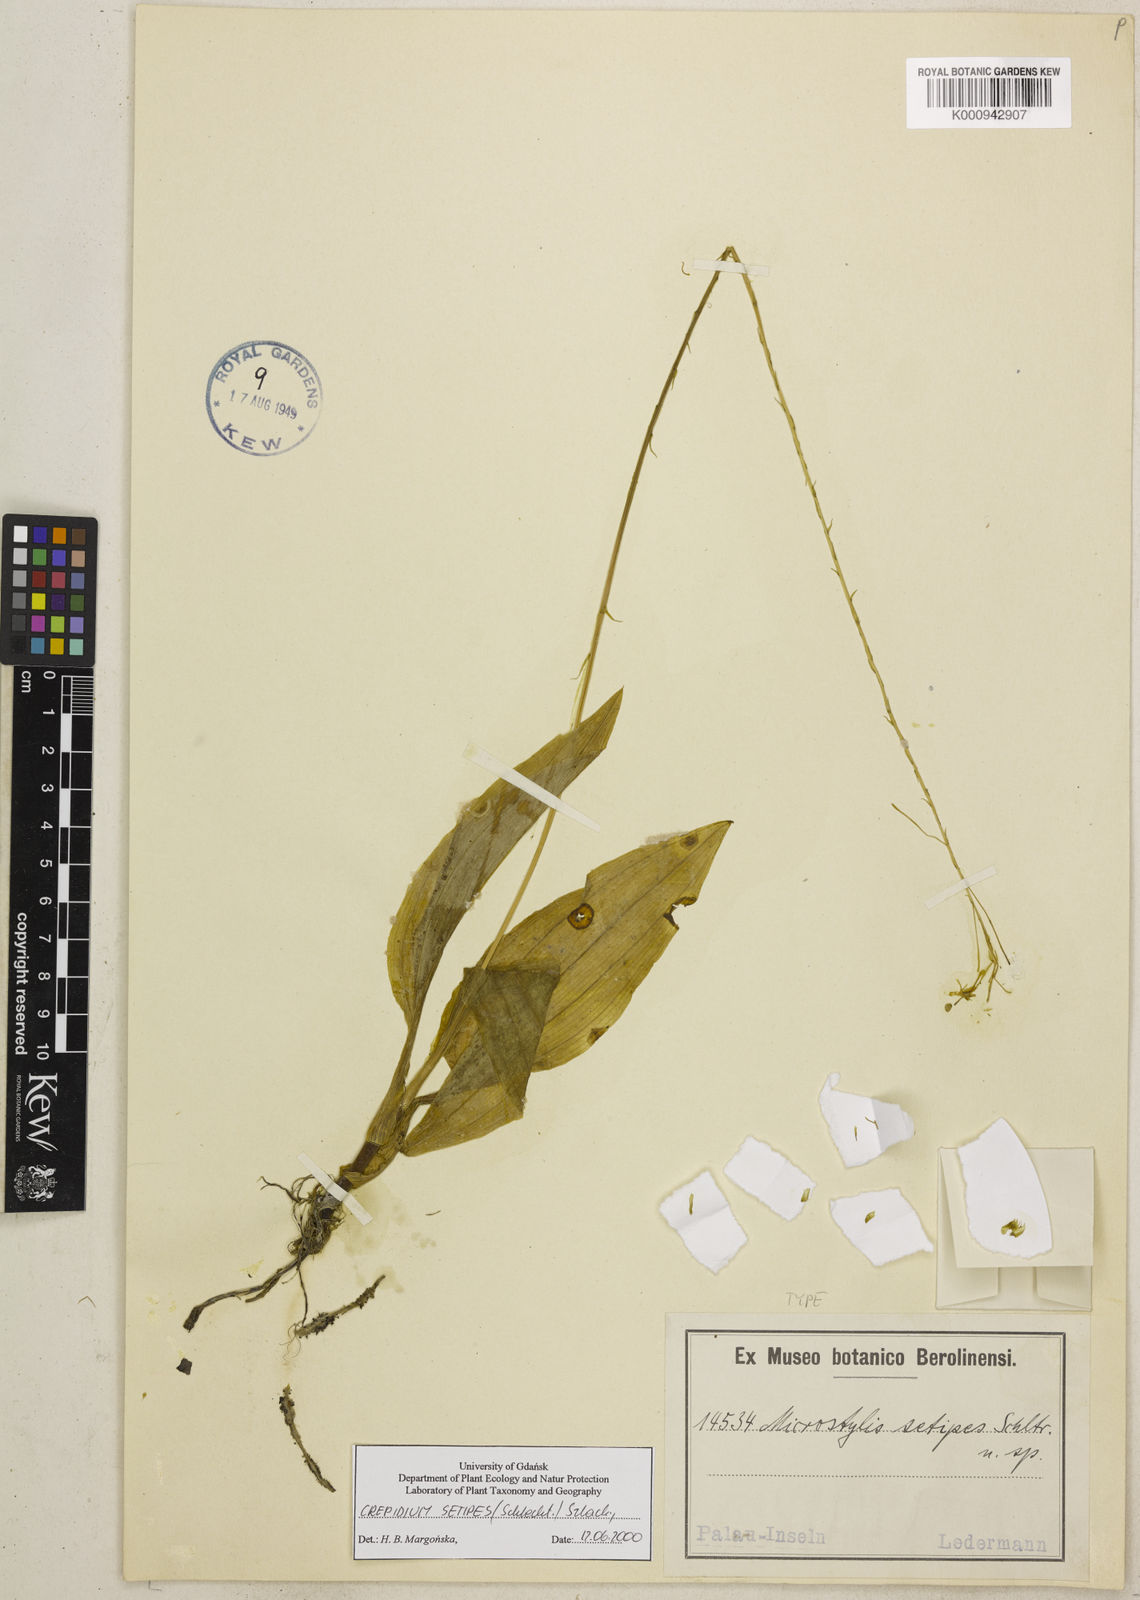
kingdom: Plantae
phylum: Tracheophyta
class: Liliopsida
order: Asparagales
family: Orchidaceae
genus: Crepidium
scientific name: Crepidium setipes
